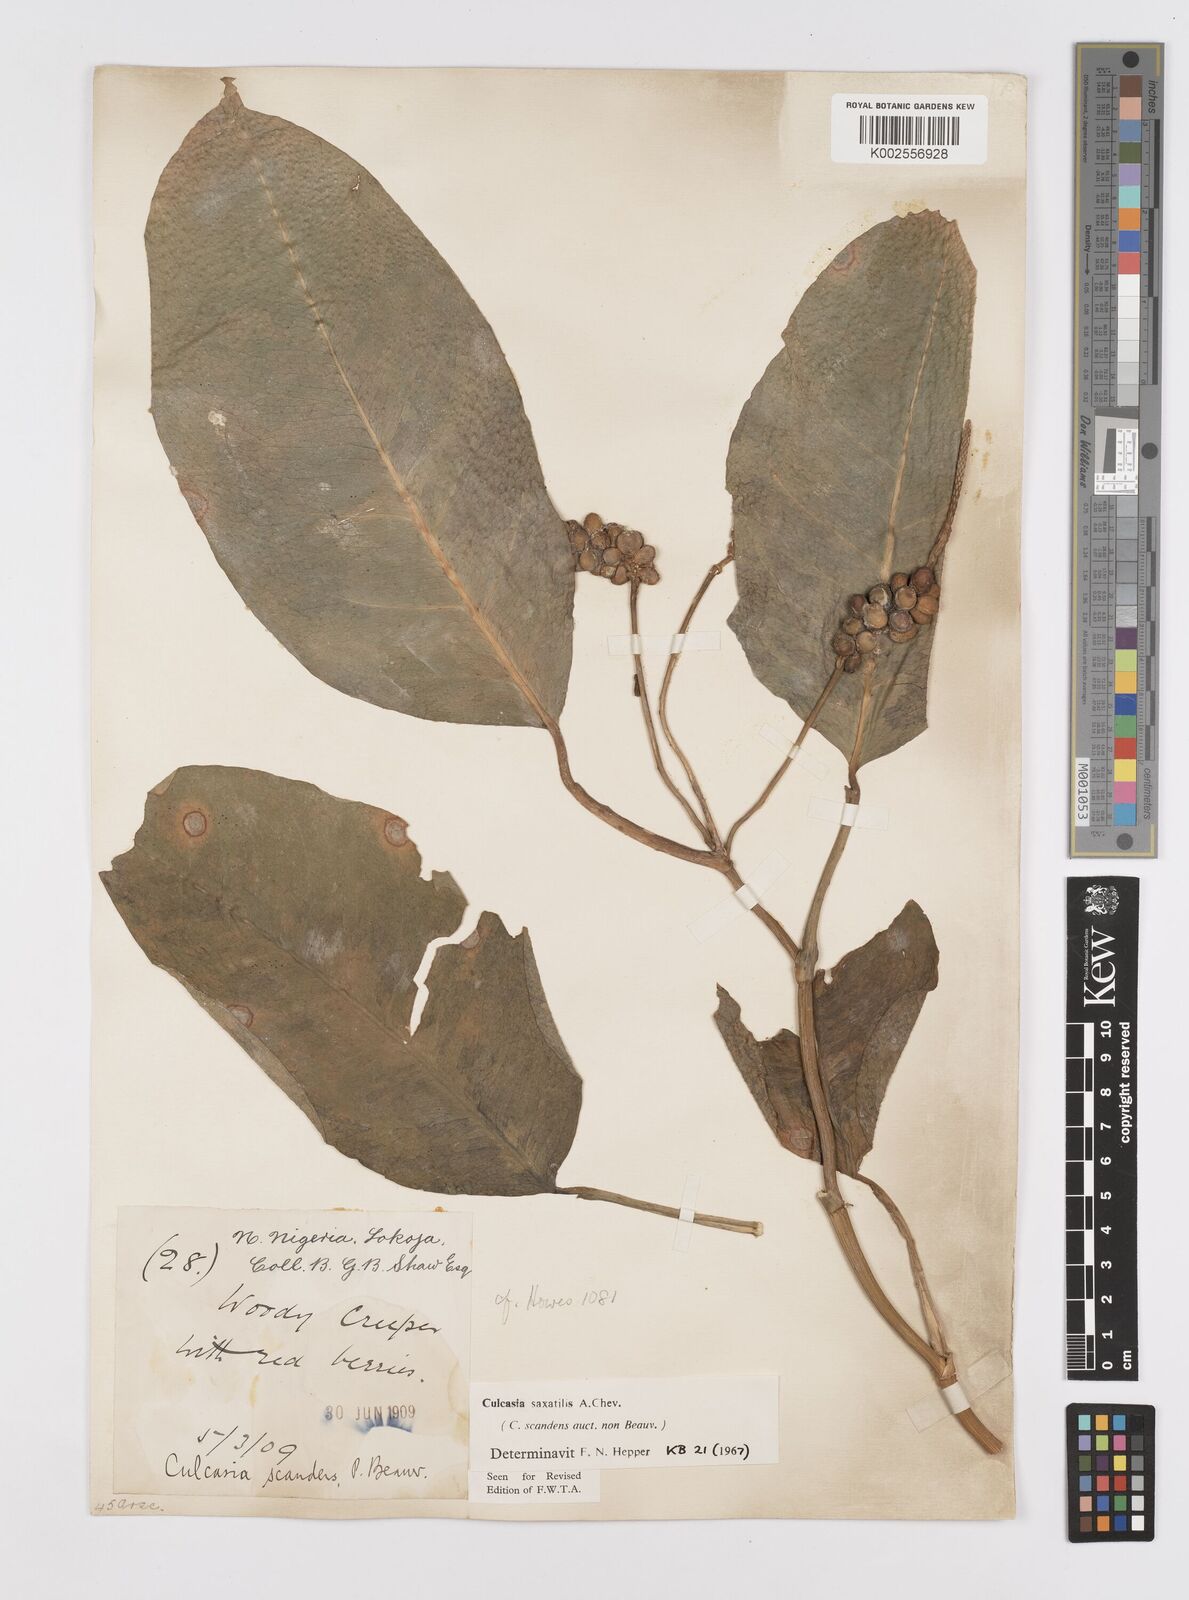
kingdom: Plantae
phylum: Tracheophyta
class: Liliopsida
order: Alismatales
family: Araceae
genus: Culcasia
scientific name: Culcasia scandens
